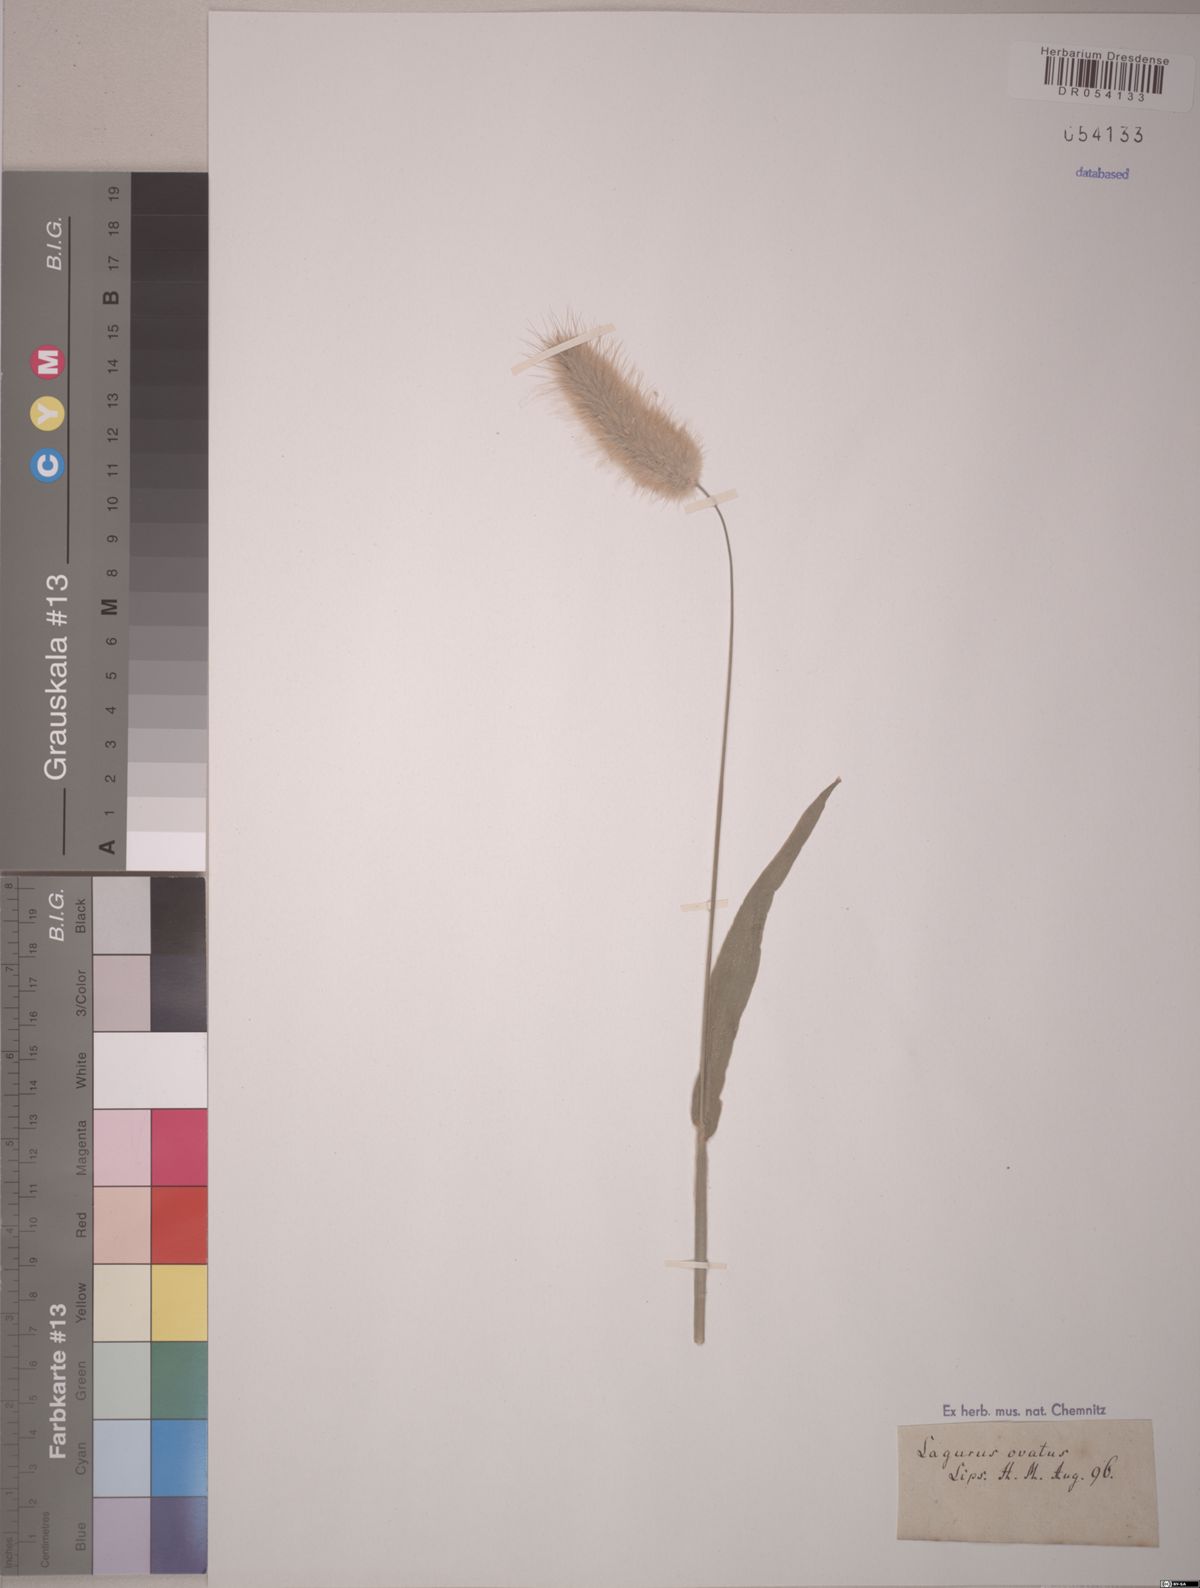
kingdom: Plantae
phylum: Tracheophyta
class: Liliopsida
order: Poales
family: Poaceae
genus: Lagurus
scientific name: Lagurus ovatus
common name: Hare's-tail
